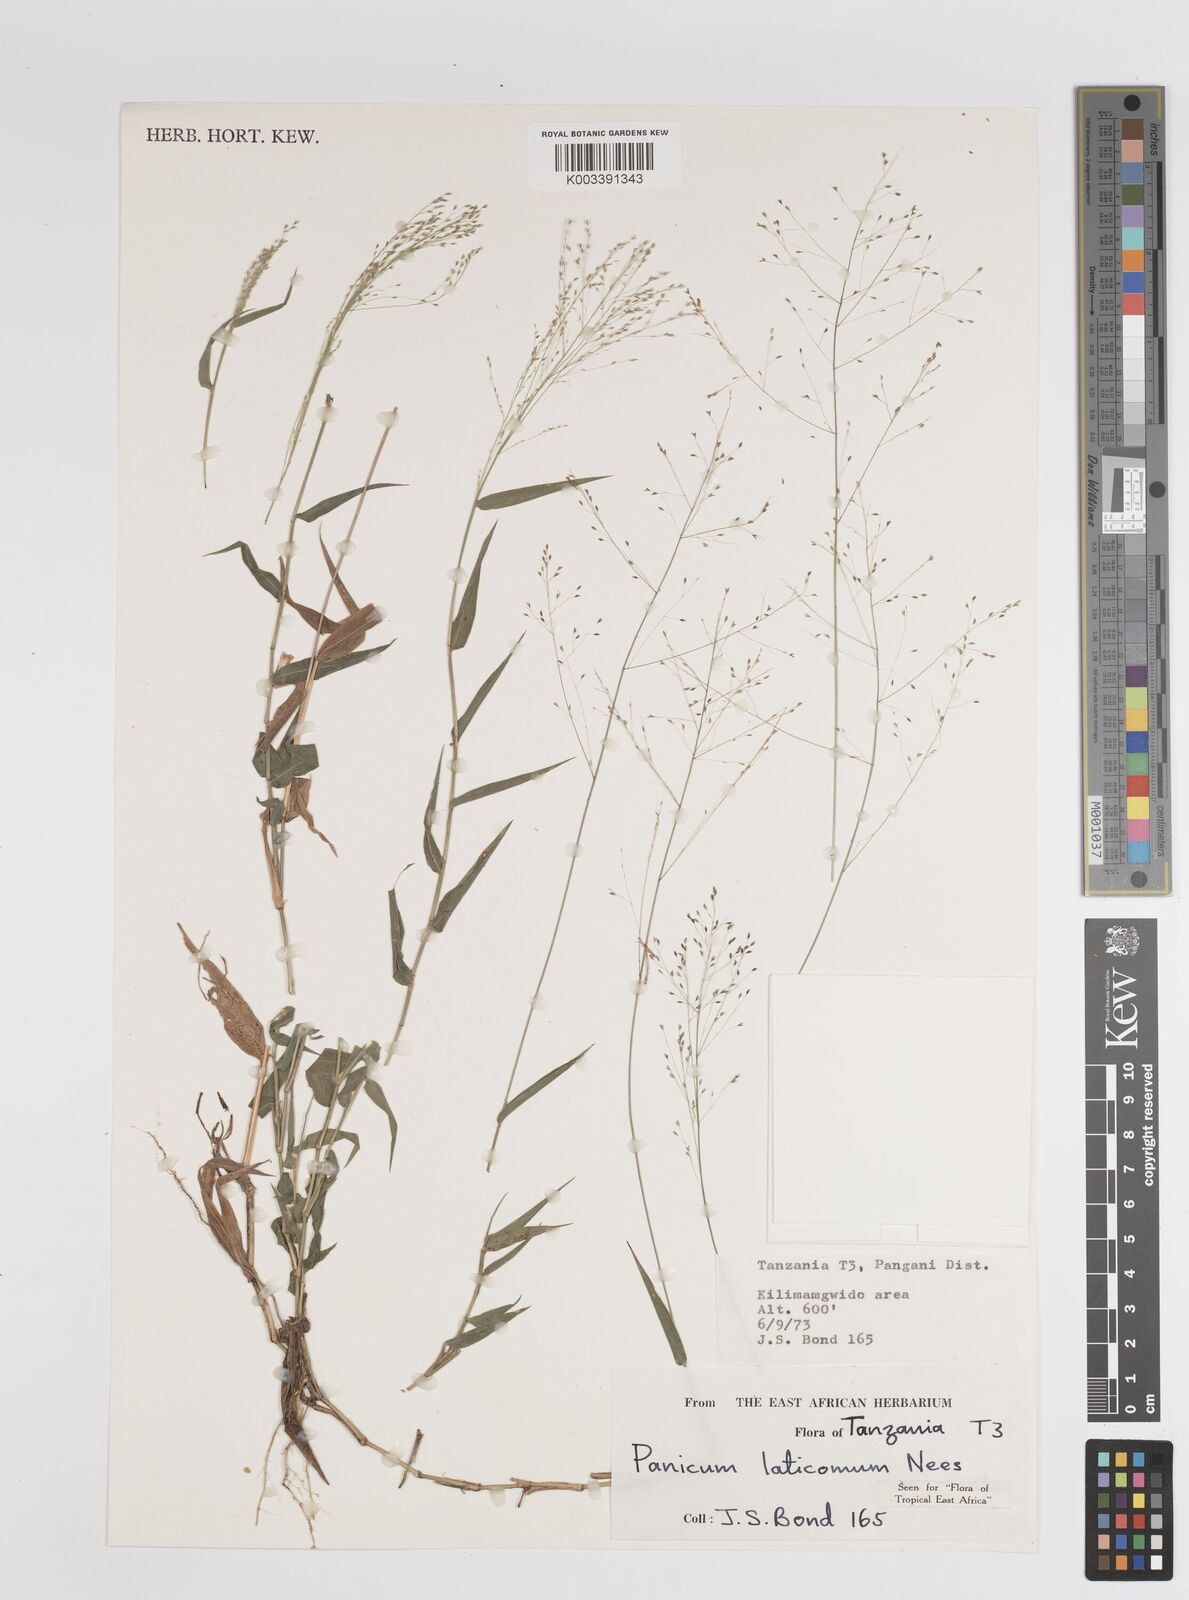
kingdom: Plantae
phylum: Tracheophyta
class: Liliopsida
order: Poales
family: Poaceae
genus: Panicum
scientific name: Panicum laticomum
